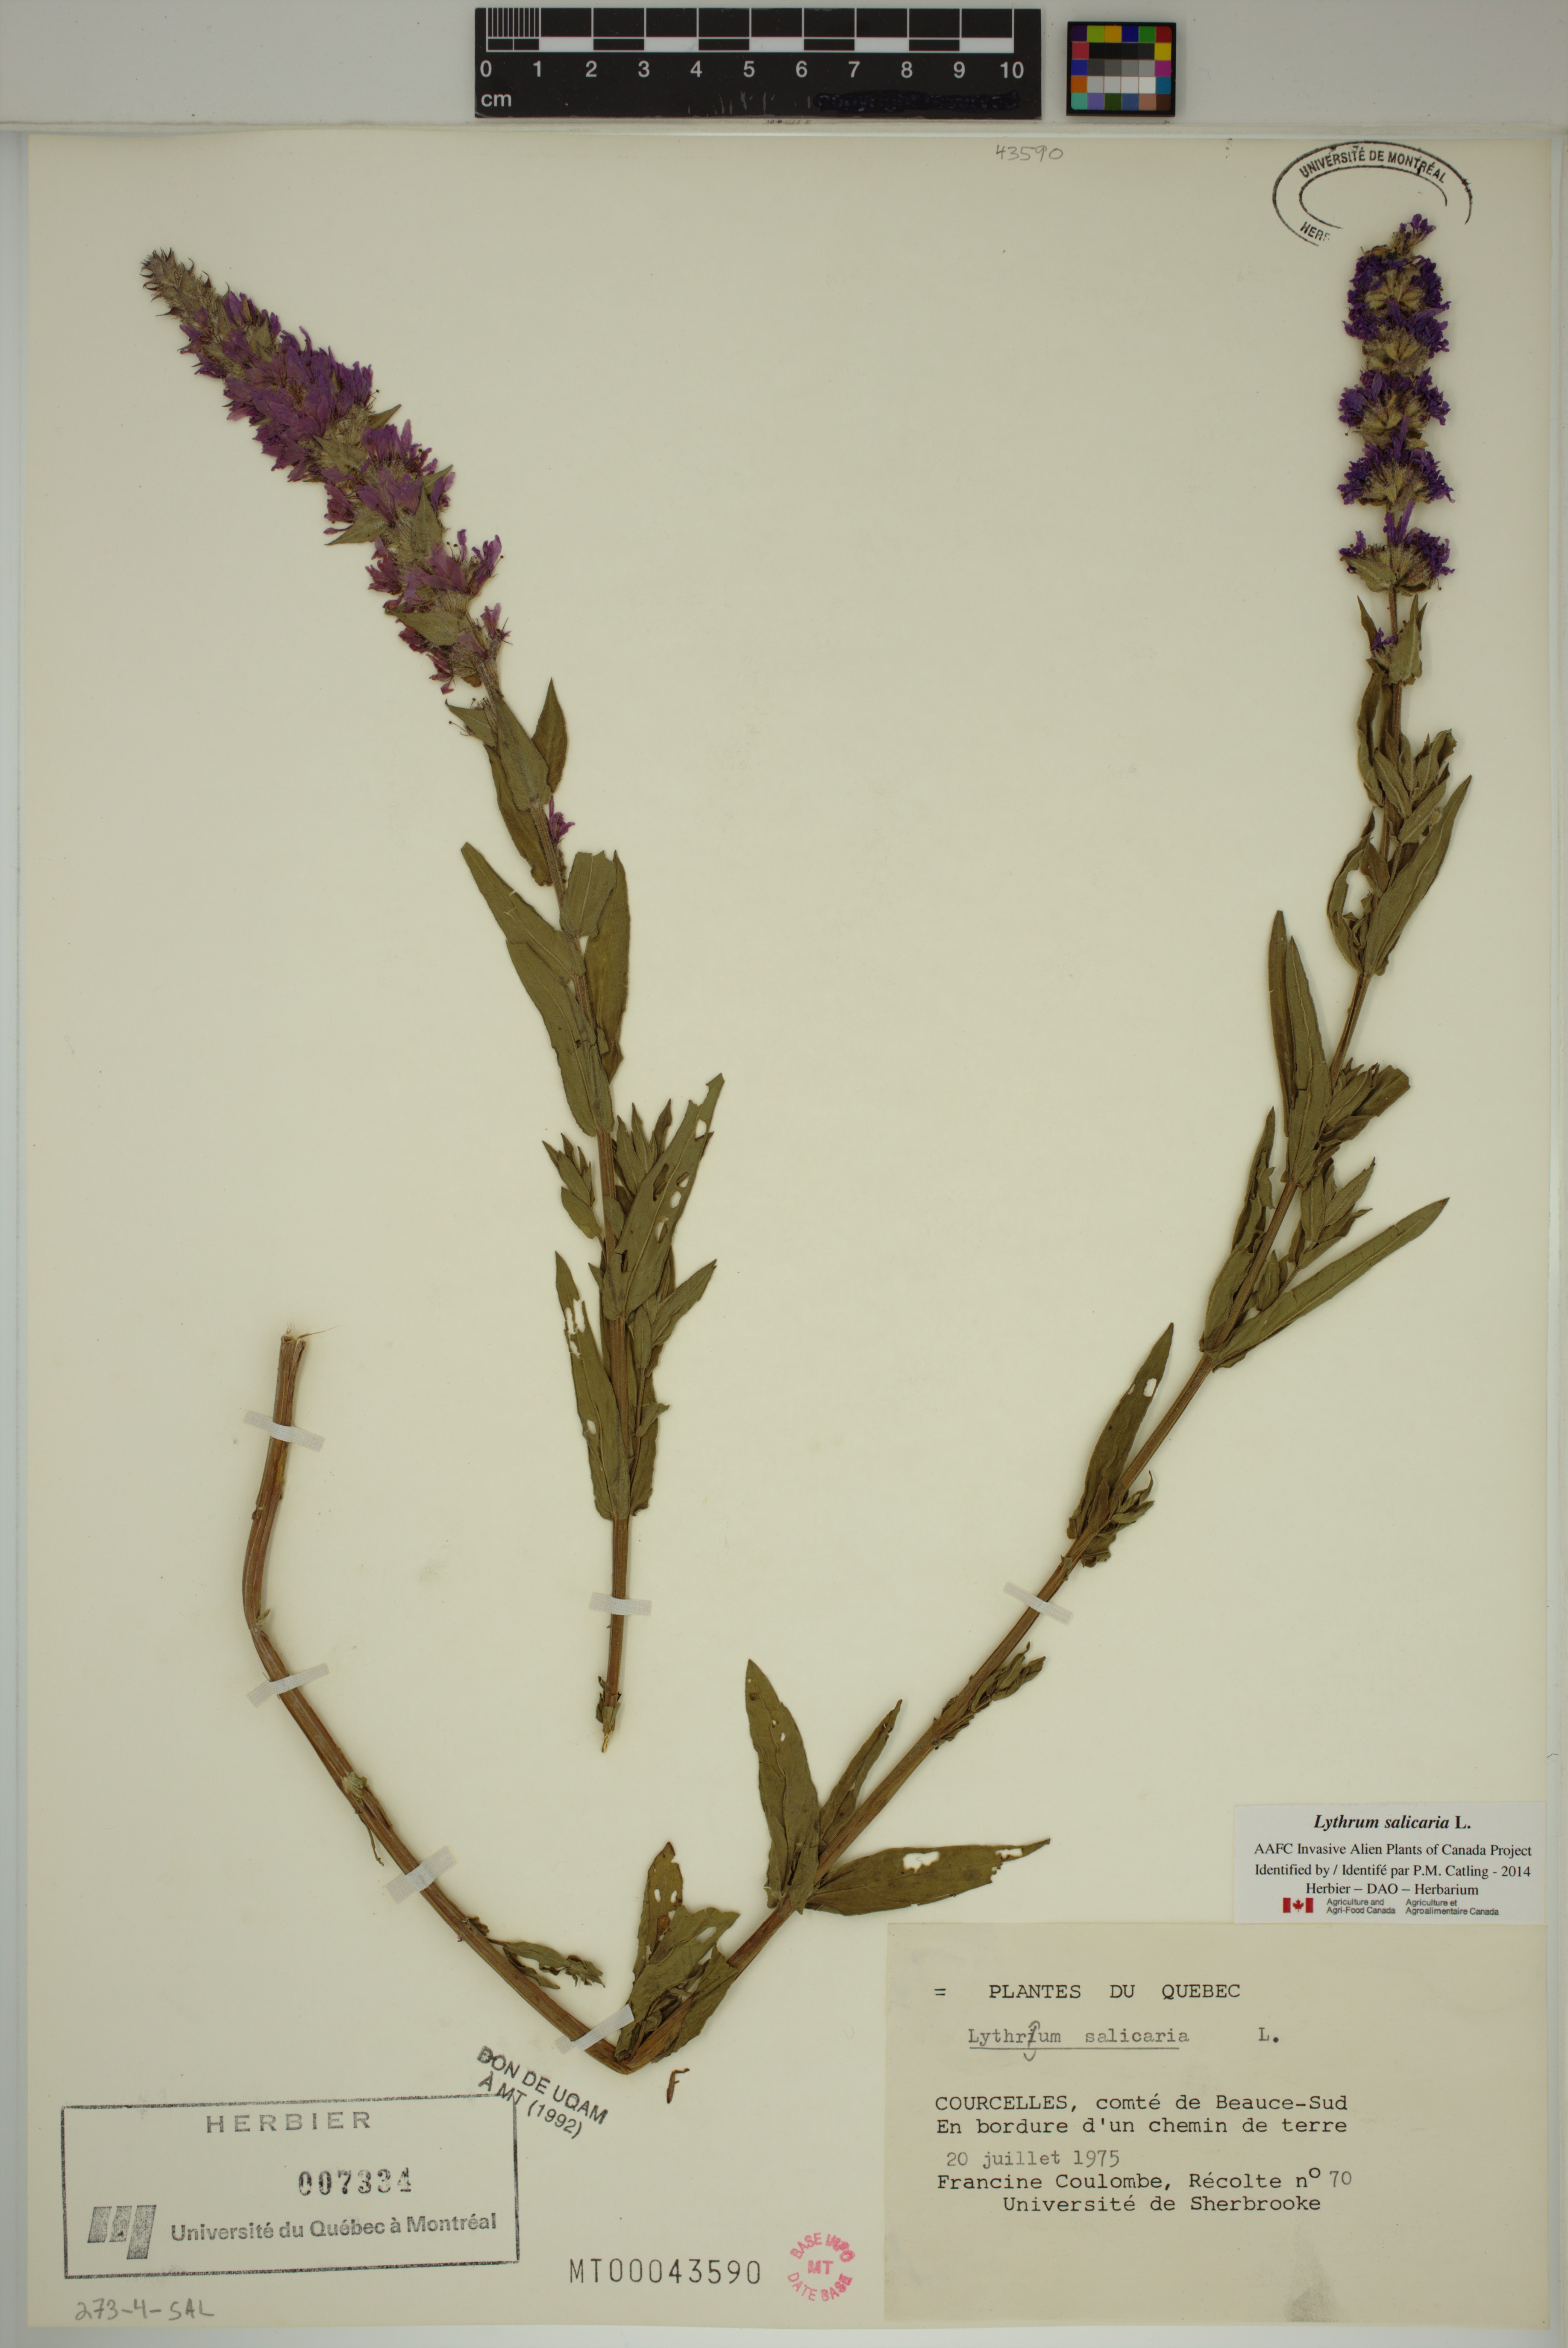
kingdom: Plantae
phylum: Tracheophyta
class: Magnoliopsida
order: Myrtales
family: Lythraceae
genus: Lythrum
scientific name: Lythrum salicaria
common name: Purple loosestrife
